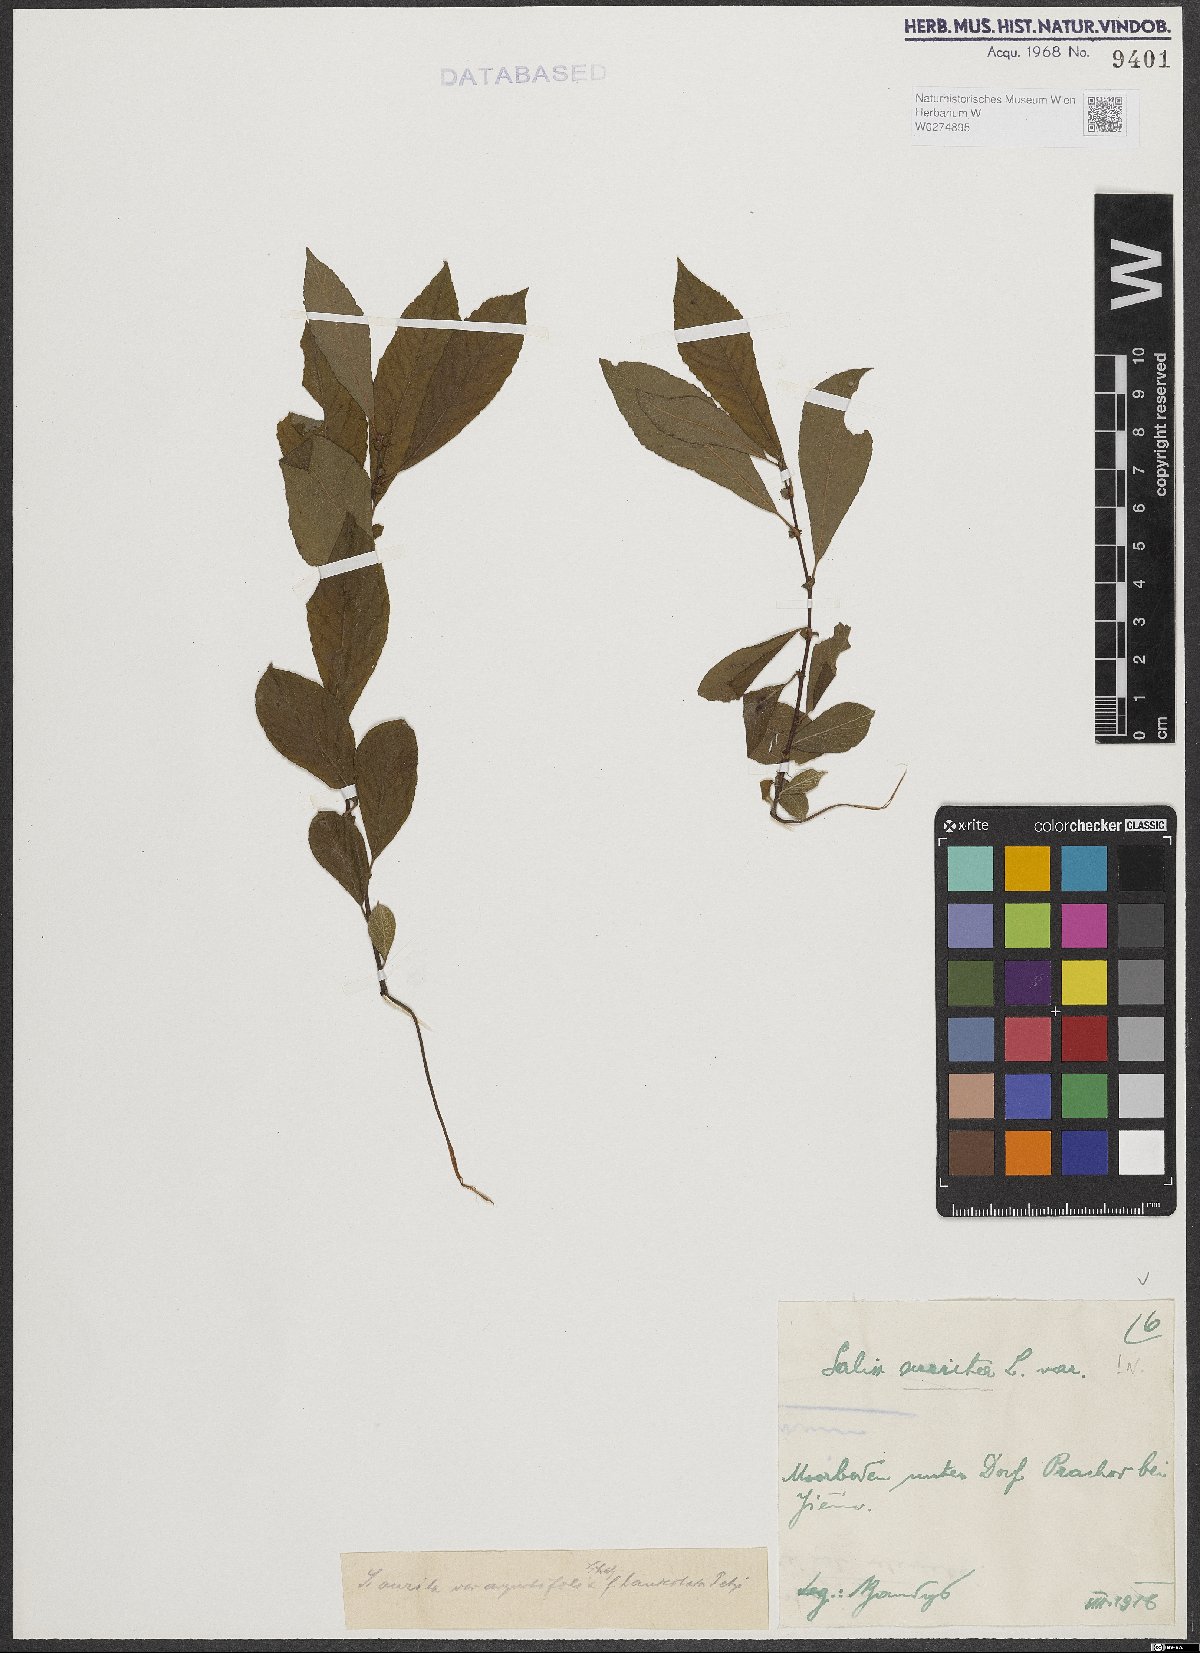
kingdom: Plantae
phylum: Tracheophyta
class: Magnoliopsida
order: Malpighiales
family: Salicaceae
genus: Salix
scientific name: Salix aurita
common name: Eared willow
